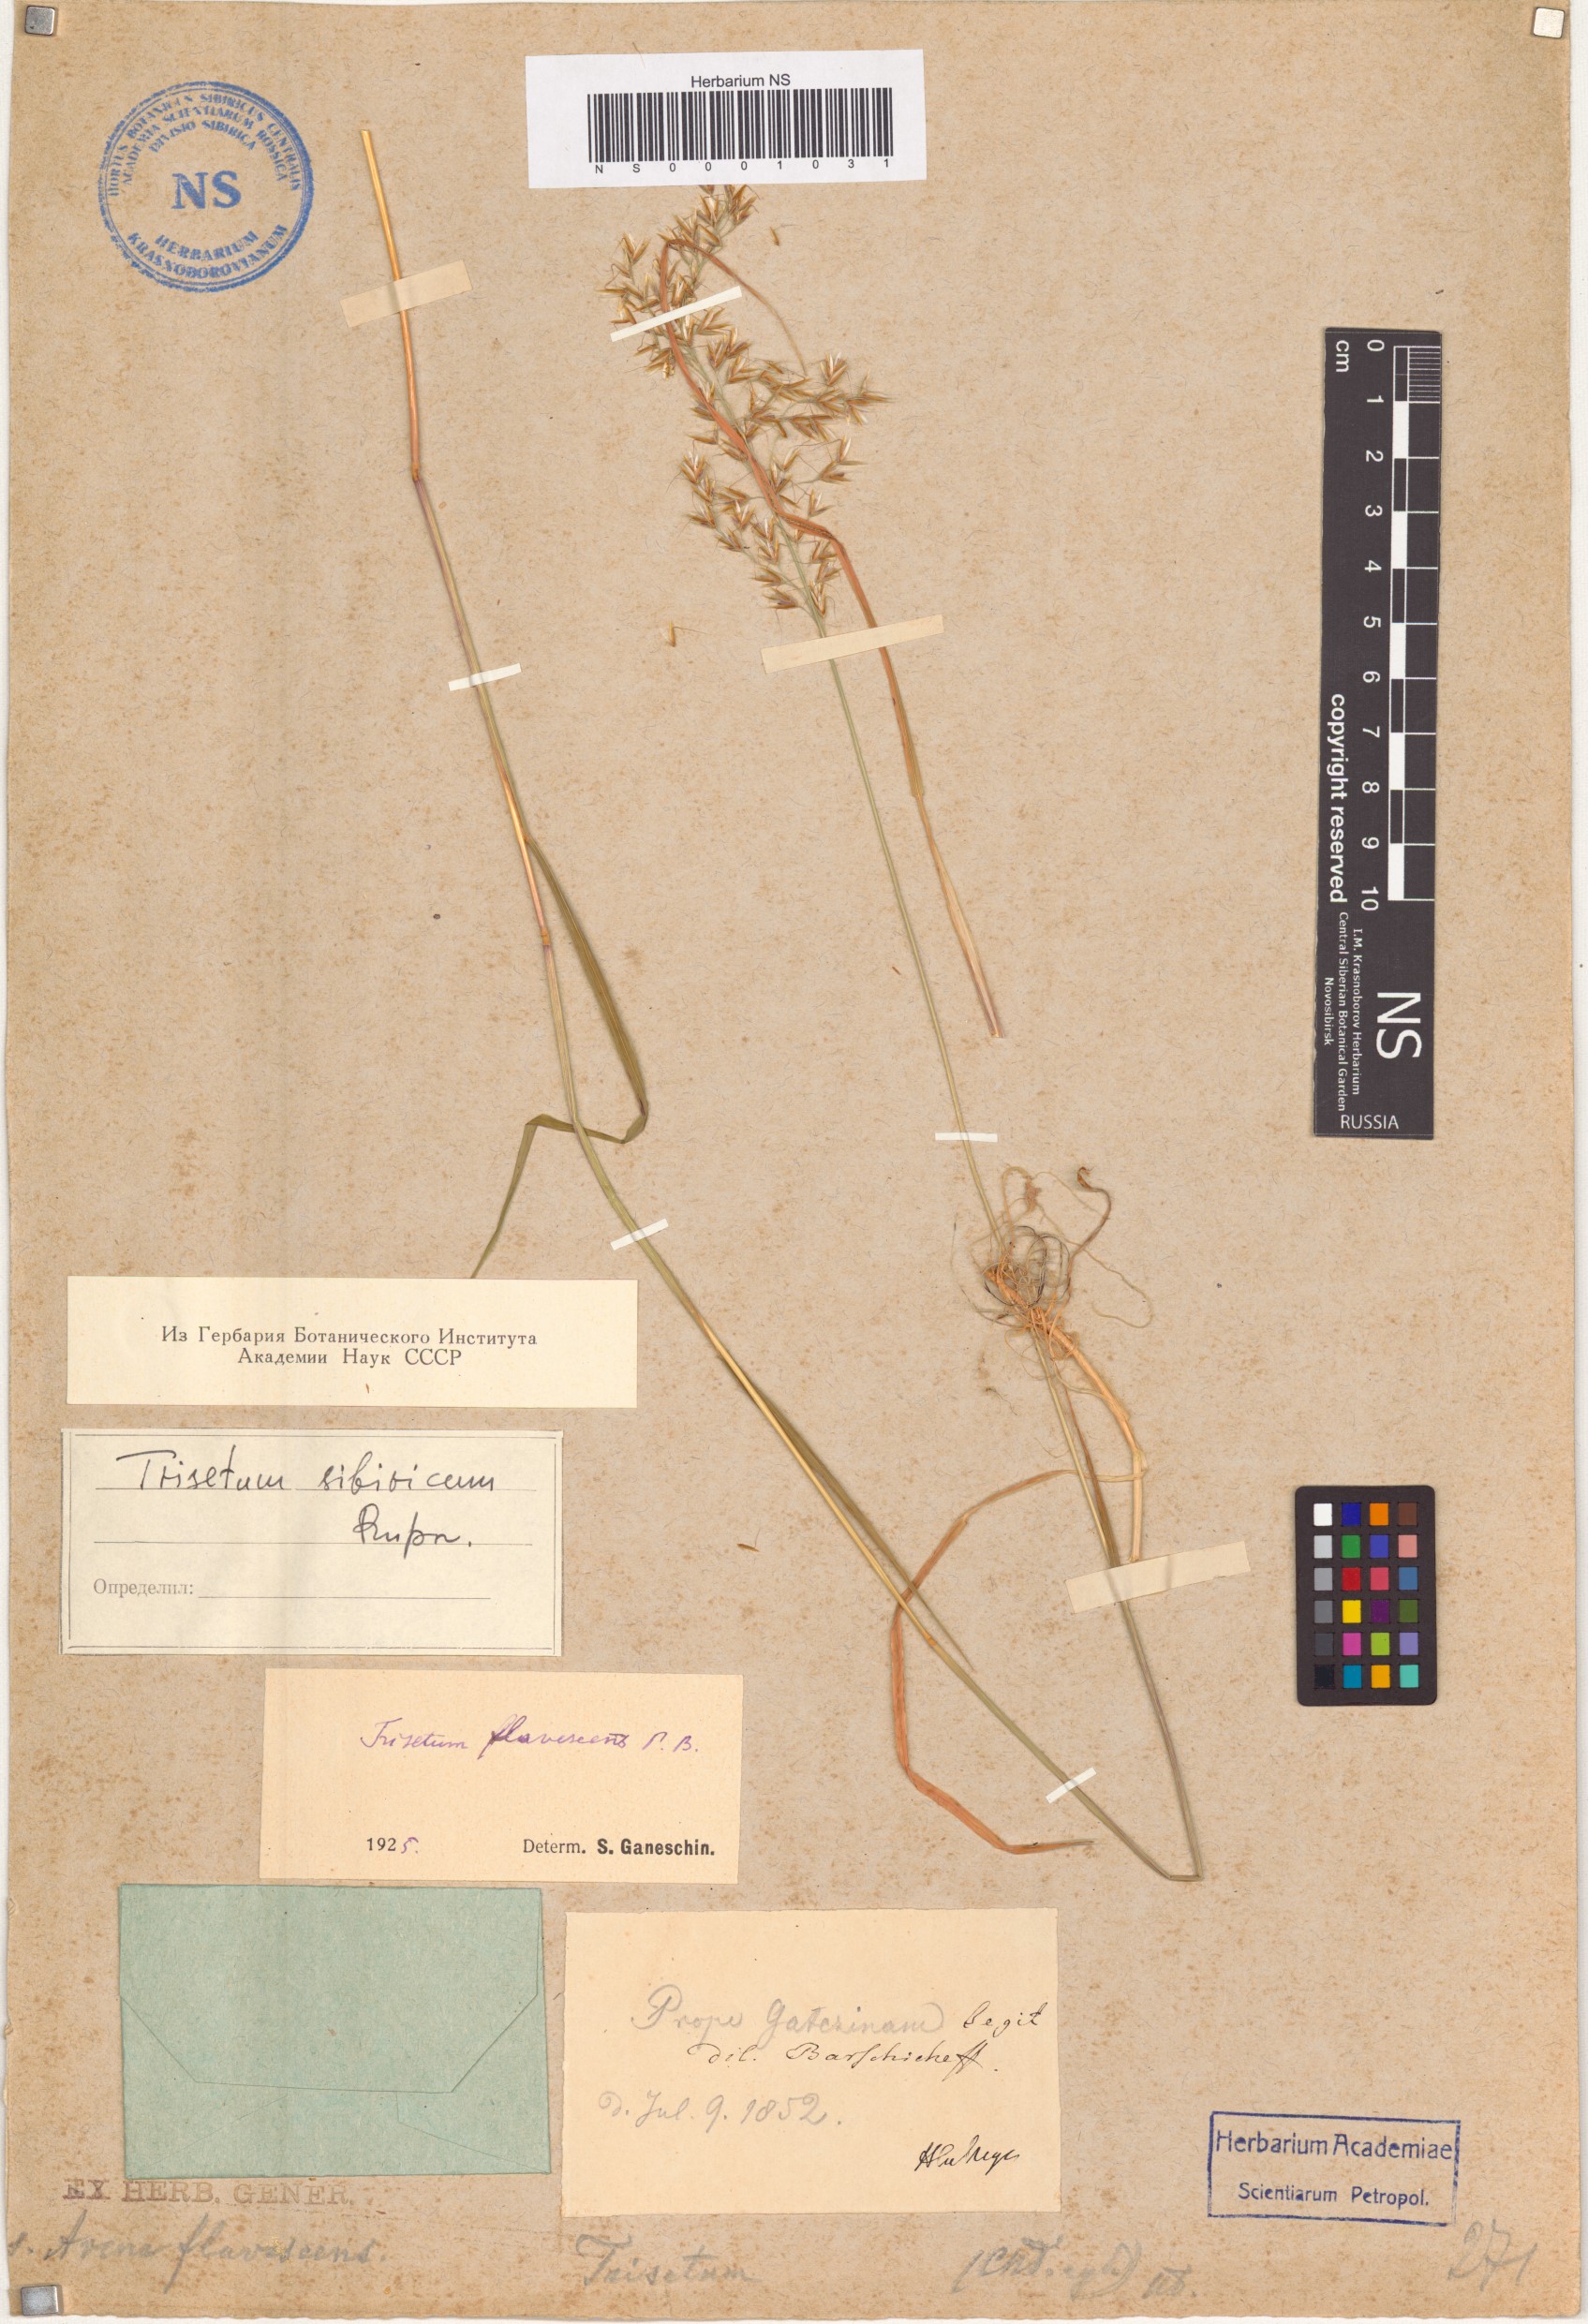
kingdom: Plantae
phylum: Tracheophyta
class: Liliopsida
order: Poales
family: Poaceae
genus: Sibirotrisetum
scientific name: Sibirotrisetum sibiricum
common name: Siberian false oat
